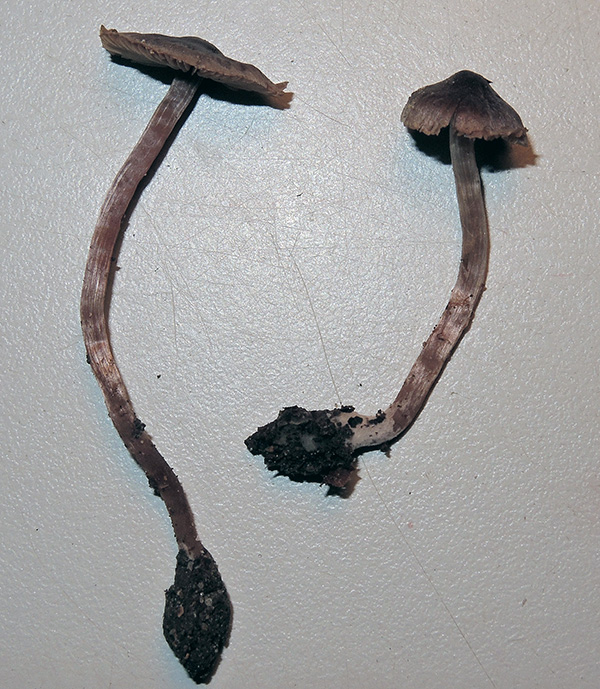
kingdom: Fungi
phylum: Basidiomycota
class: Agaricomycetes
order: Agaricales
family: Cortinariaceae
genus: Cortinarius
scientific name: Cortinarius fulvopaludosus
